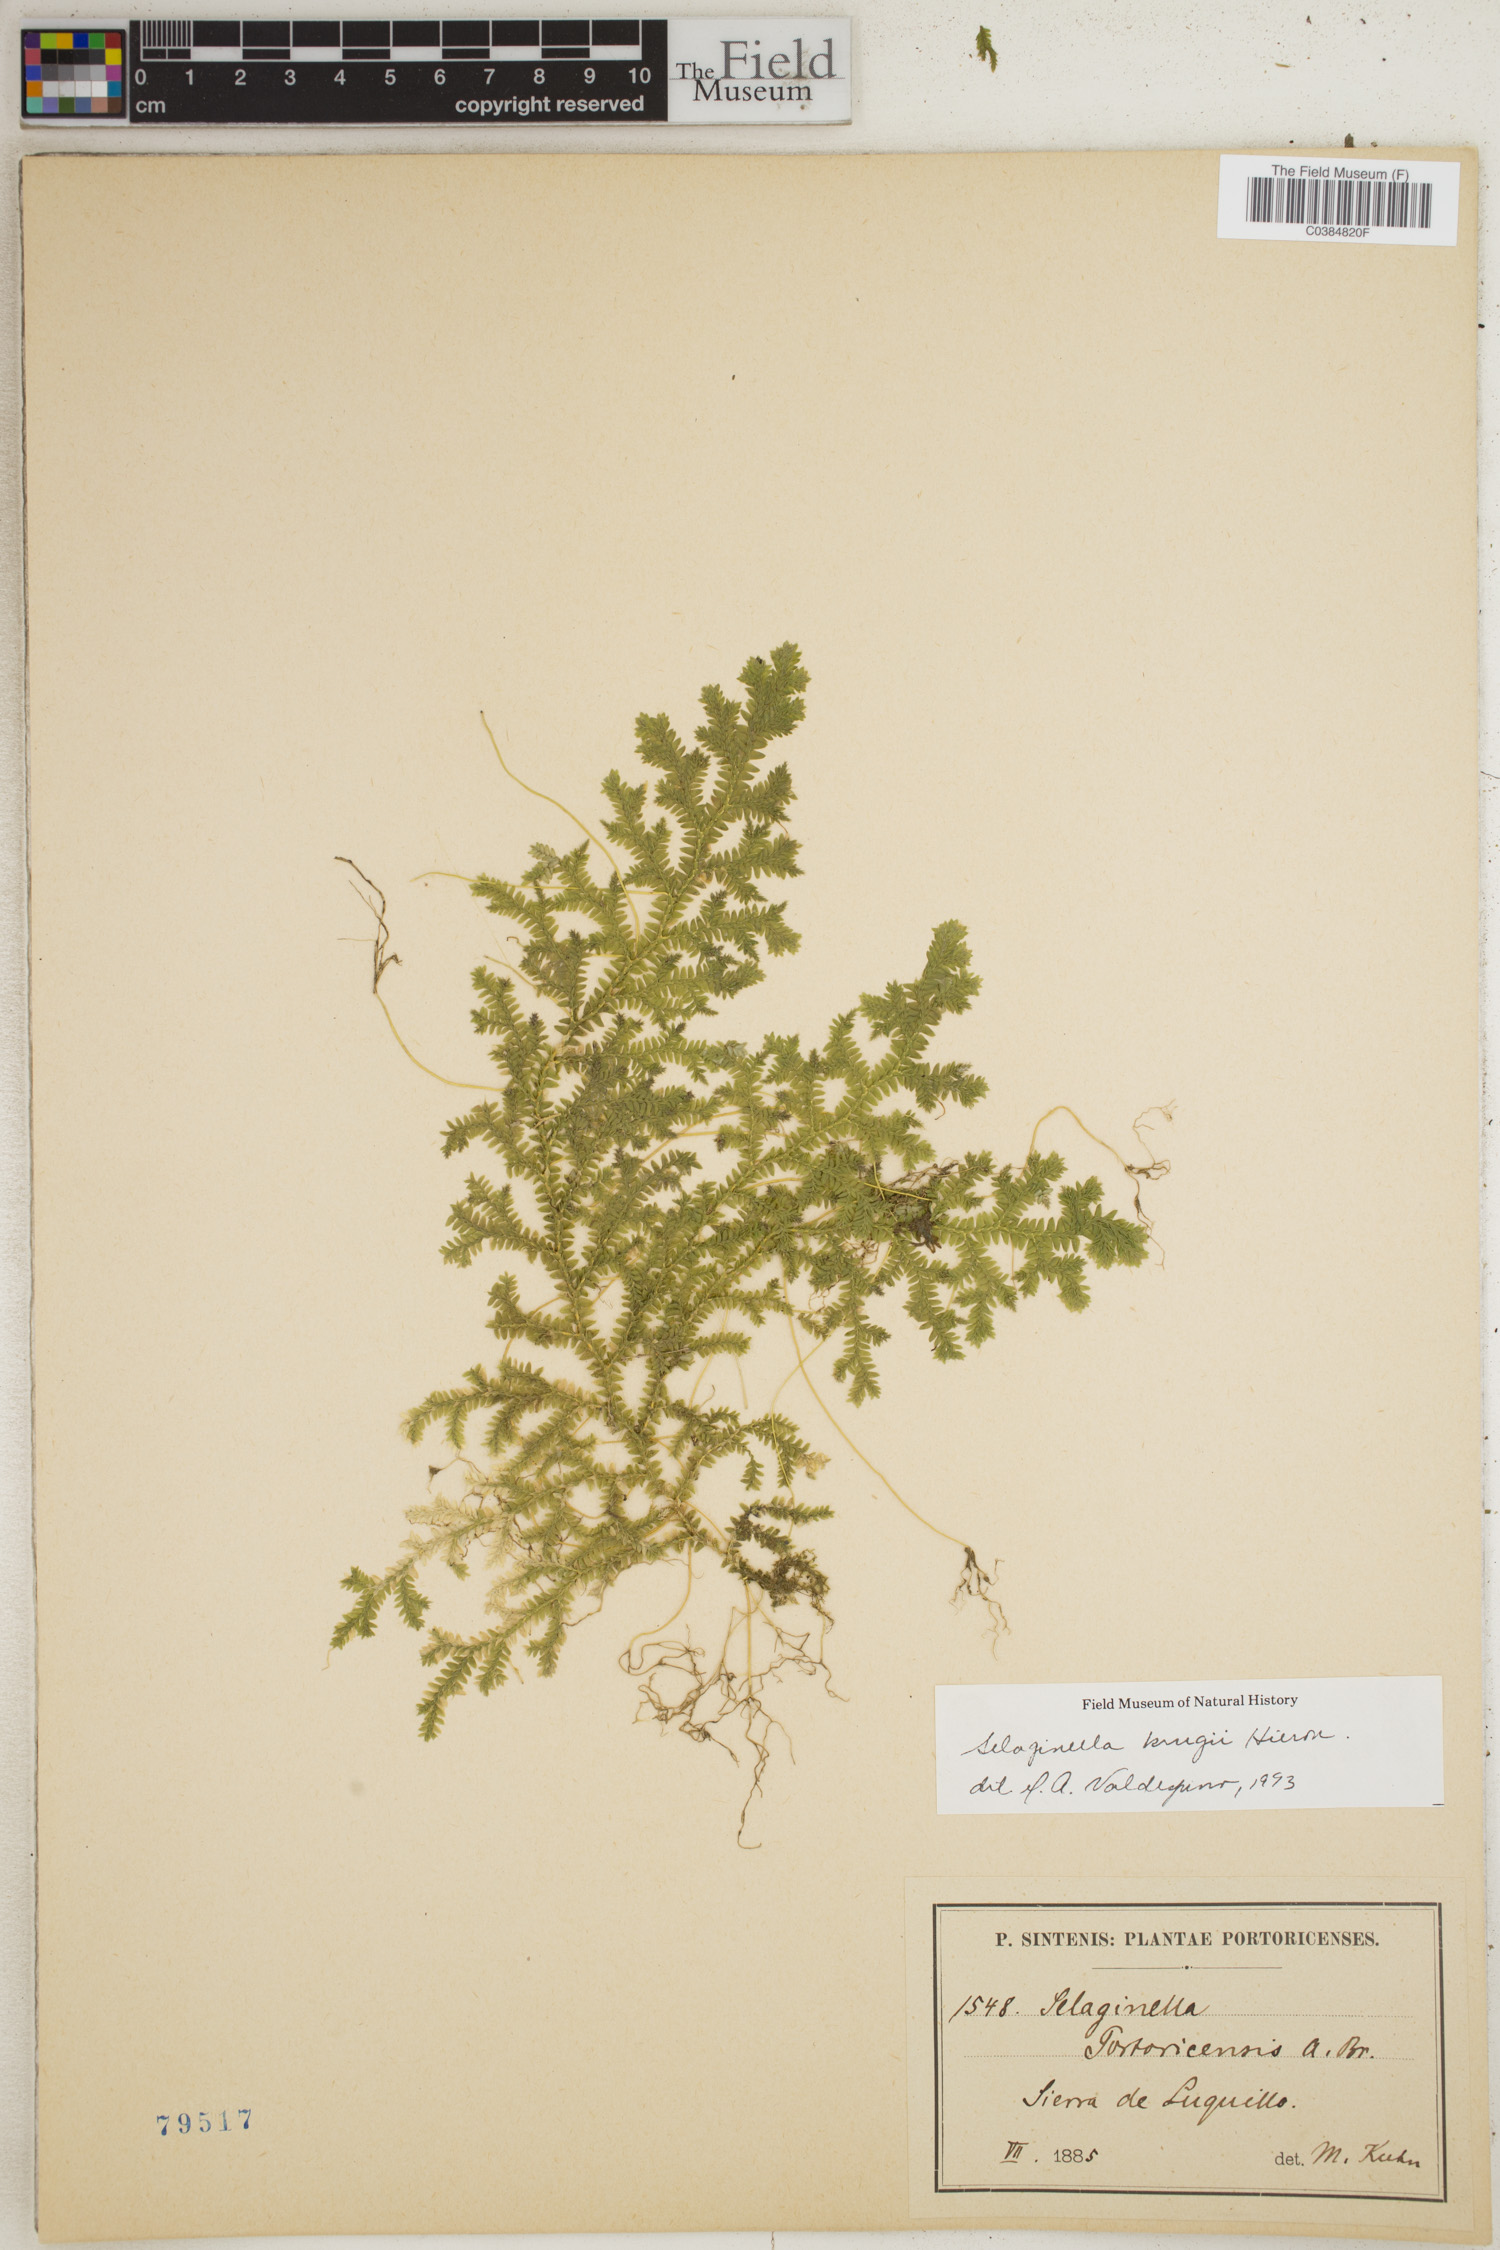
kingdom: Plantae
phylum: Tracheophyta
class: Lycopodiopsida
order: Selaginellales
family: Selaginellaceae
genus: Selaginella
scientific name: Selaginella krugii
